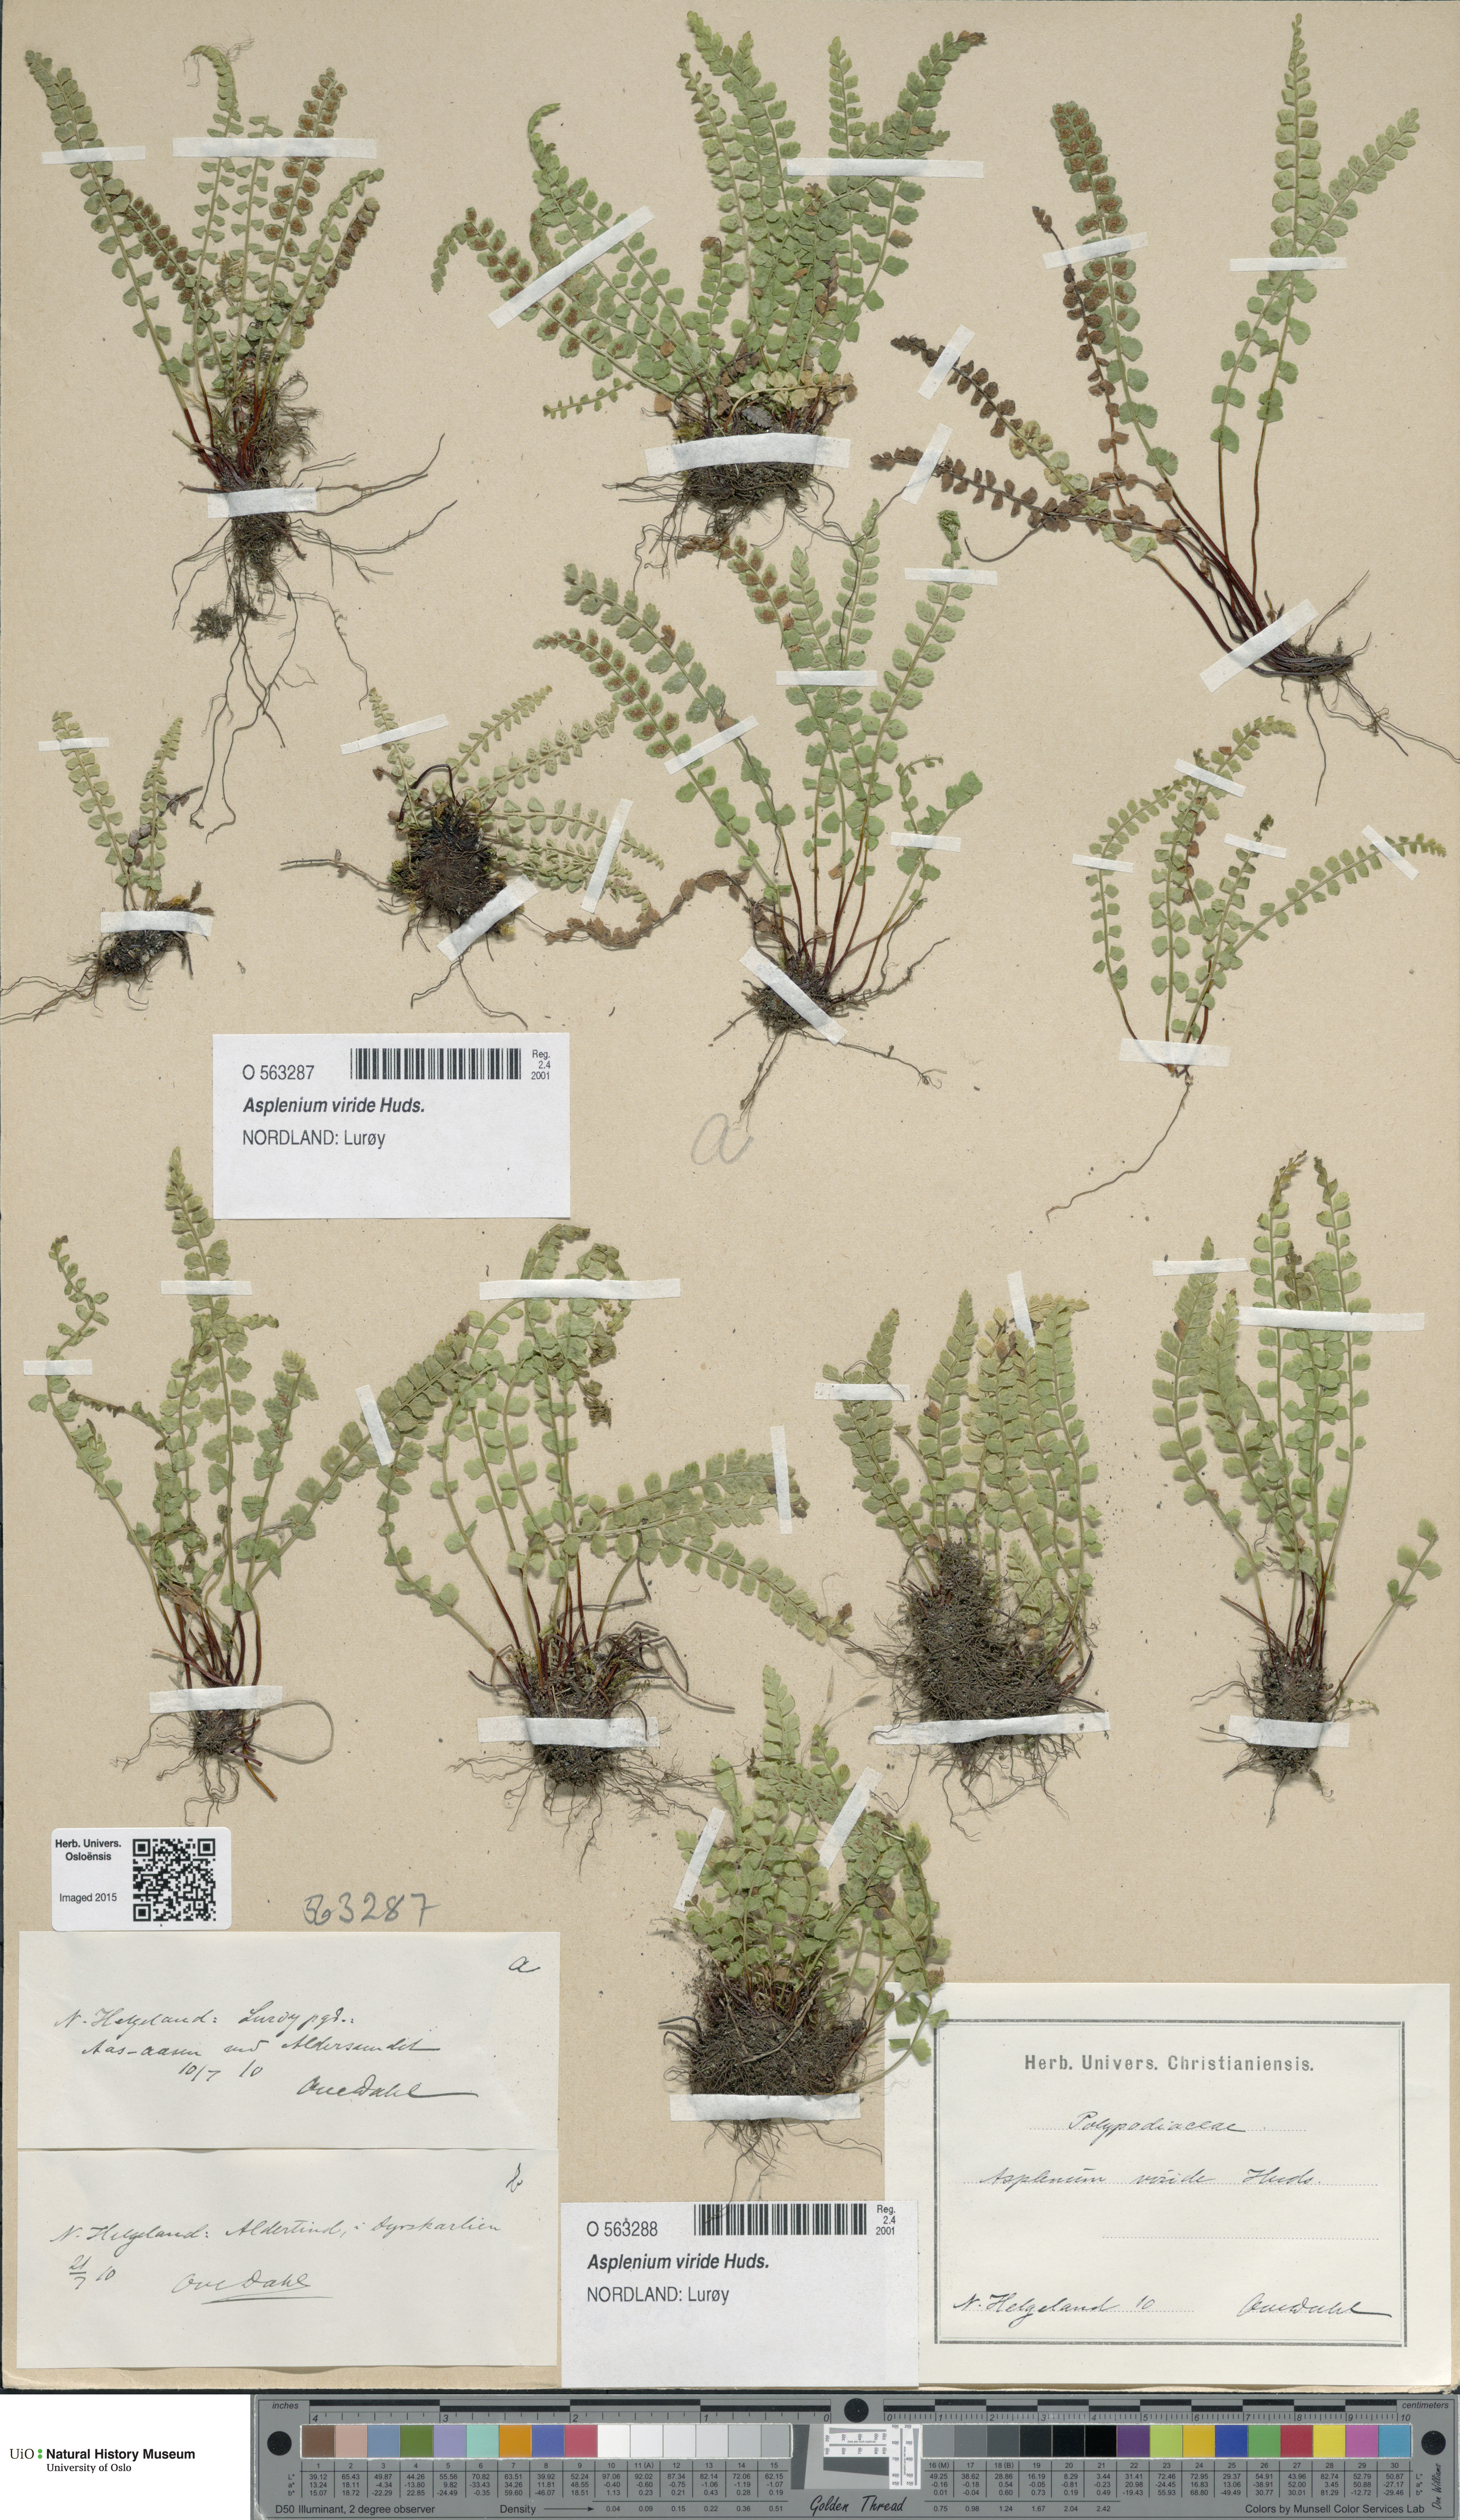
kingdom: Plantae
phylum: Tracheophyta
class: Polypodiopsida
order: Polypodiales
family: Aspleniaceae
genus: Asplenium
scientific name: Asplenium viride
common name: Green spleenwort
